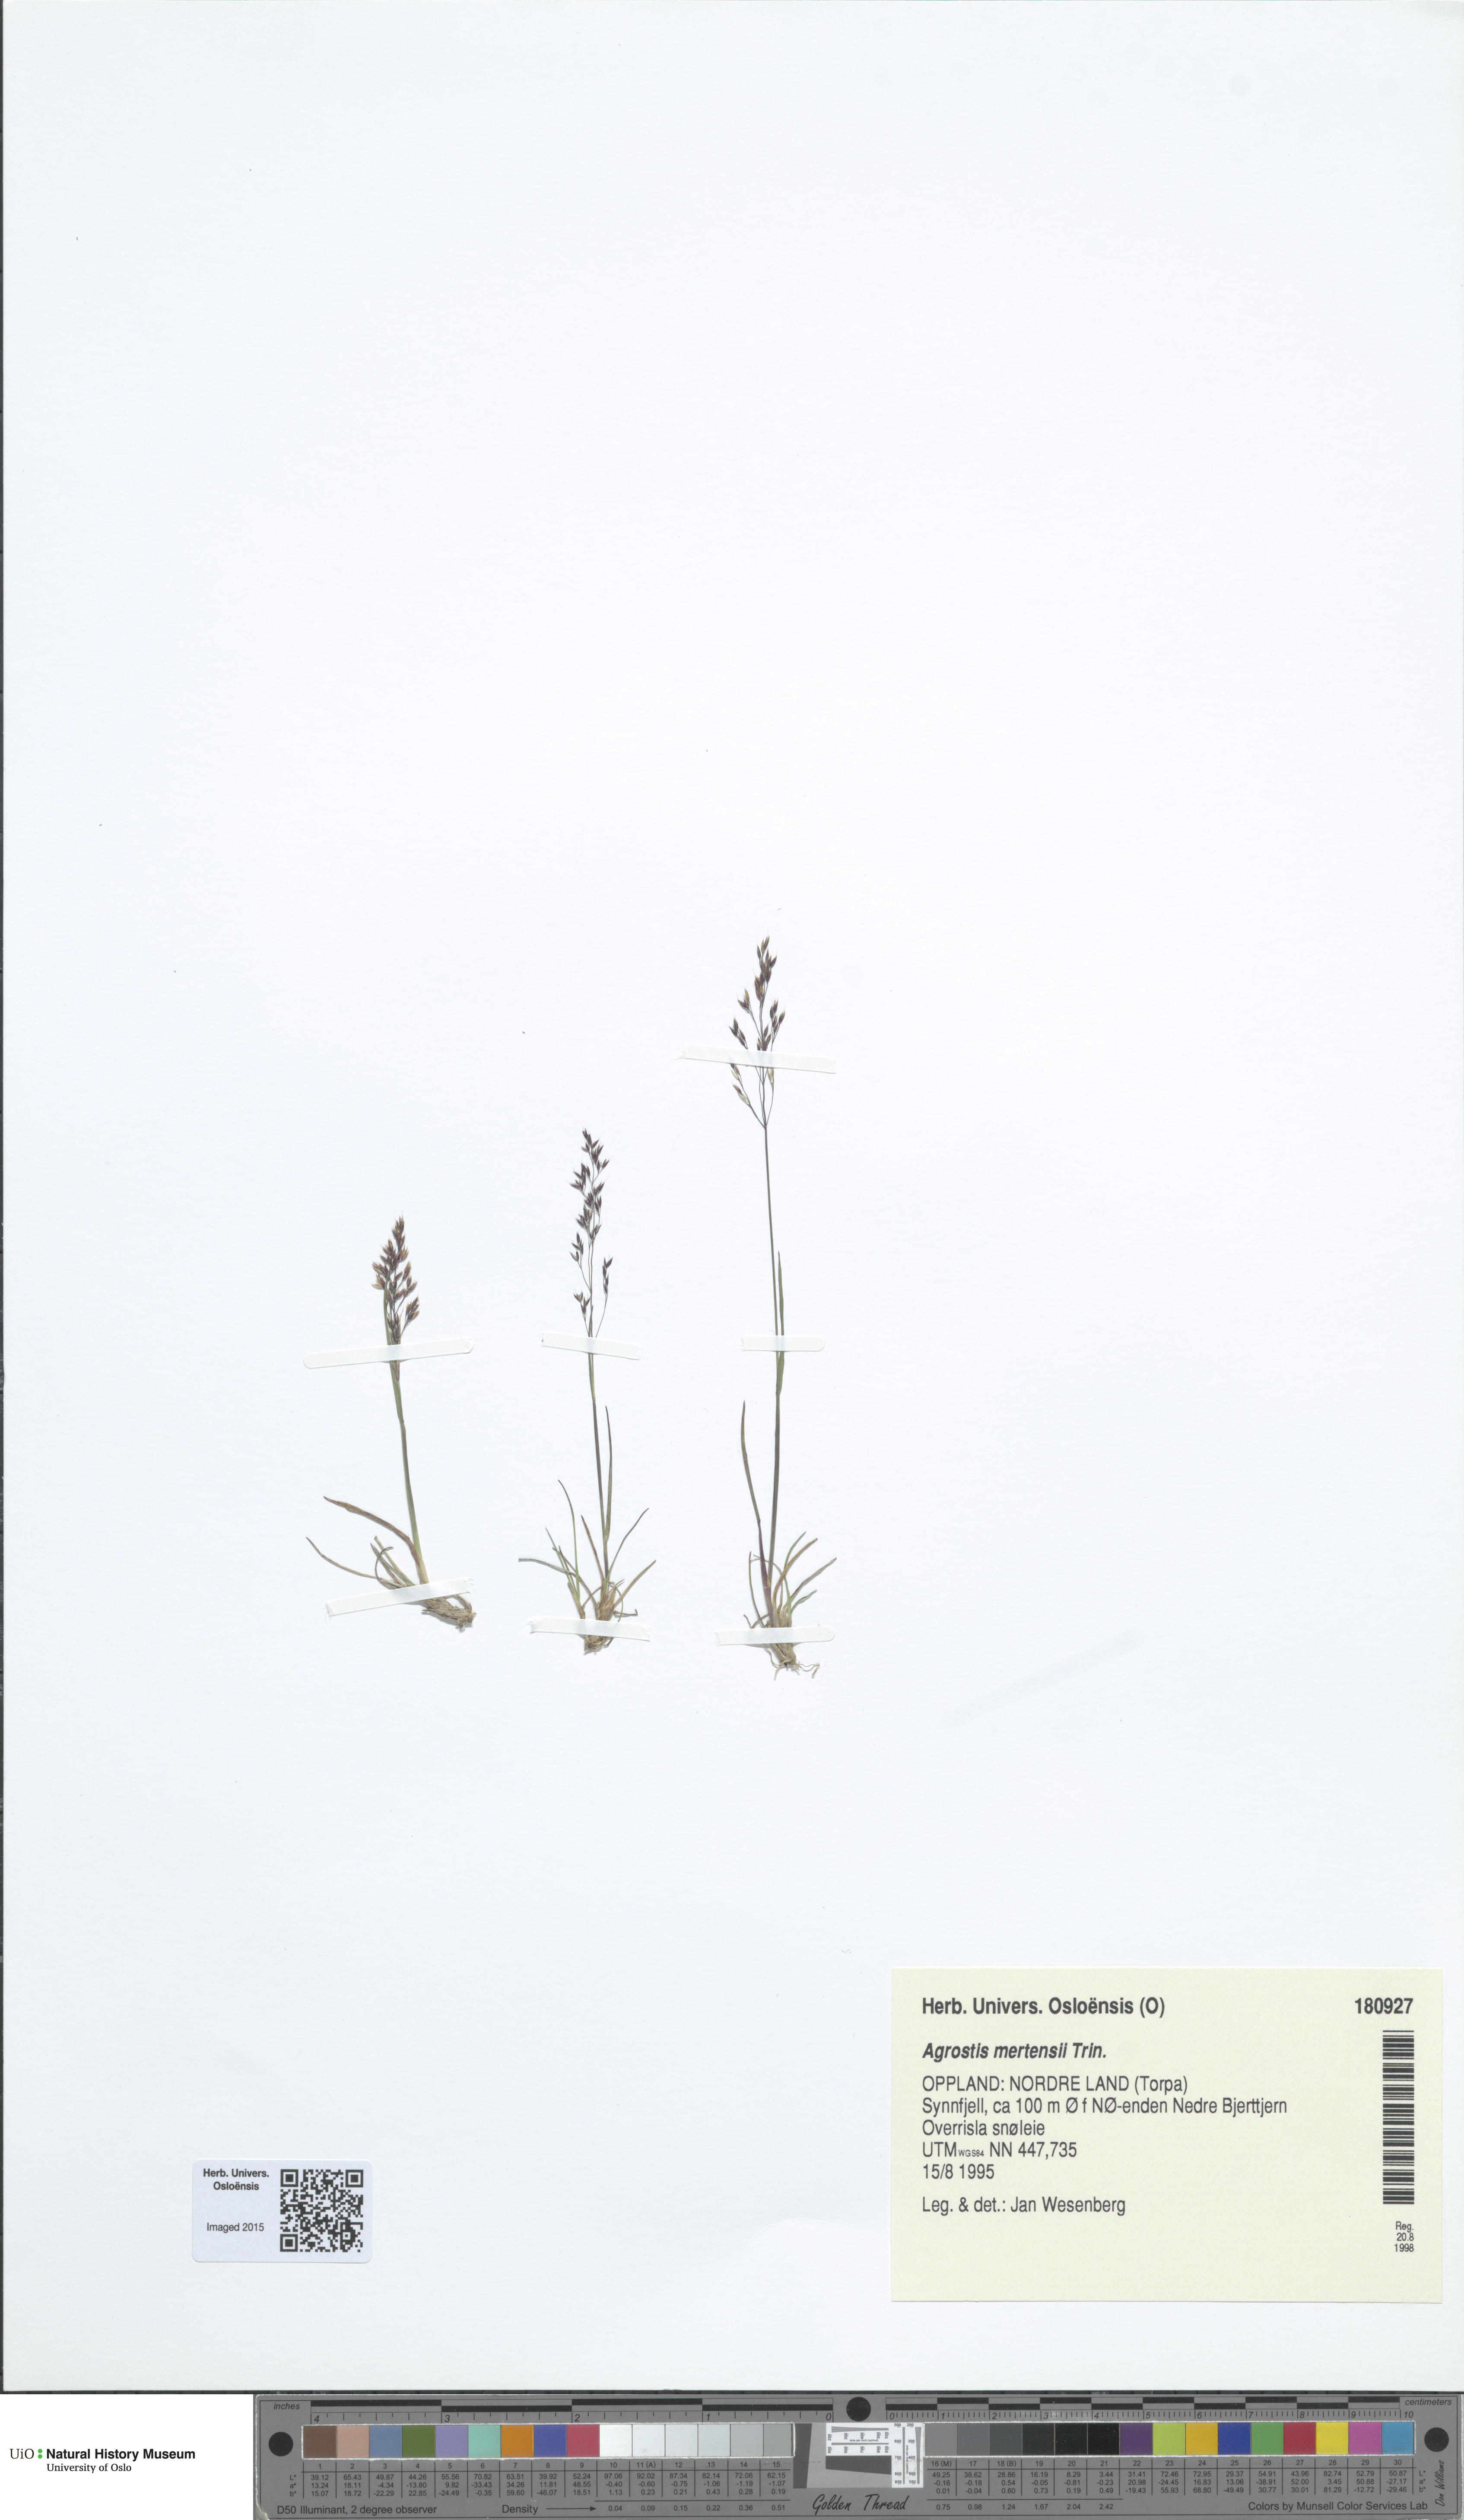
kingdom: Plantae
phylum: Tracheophyta
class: Liliopsida
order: Poales
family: Poaceae
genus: Agrostis
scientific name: Agrostis mertensii
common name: Northern bent
